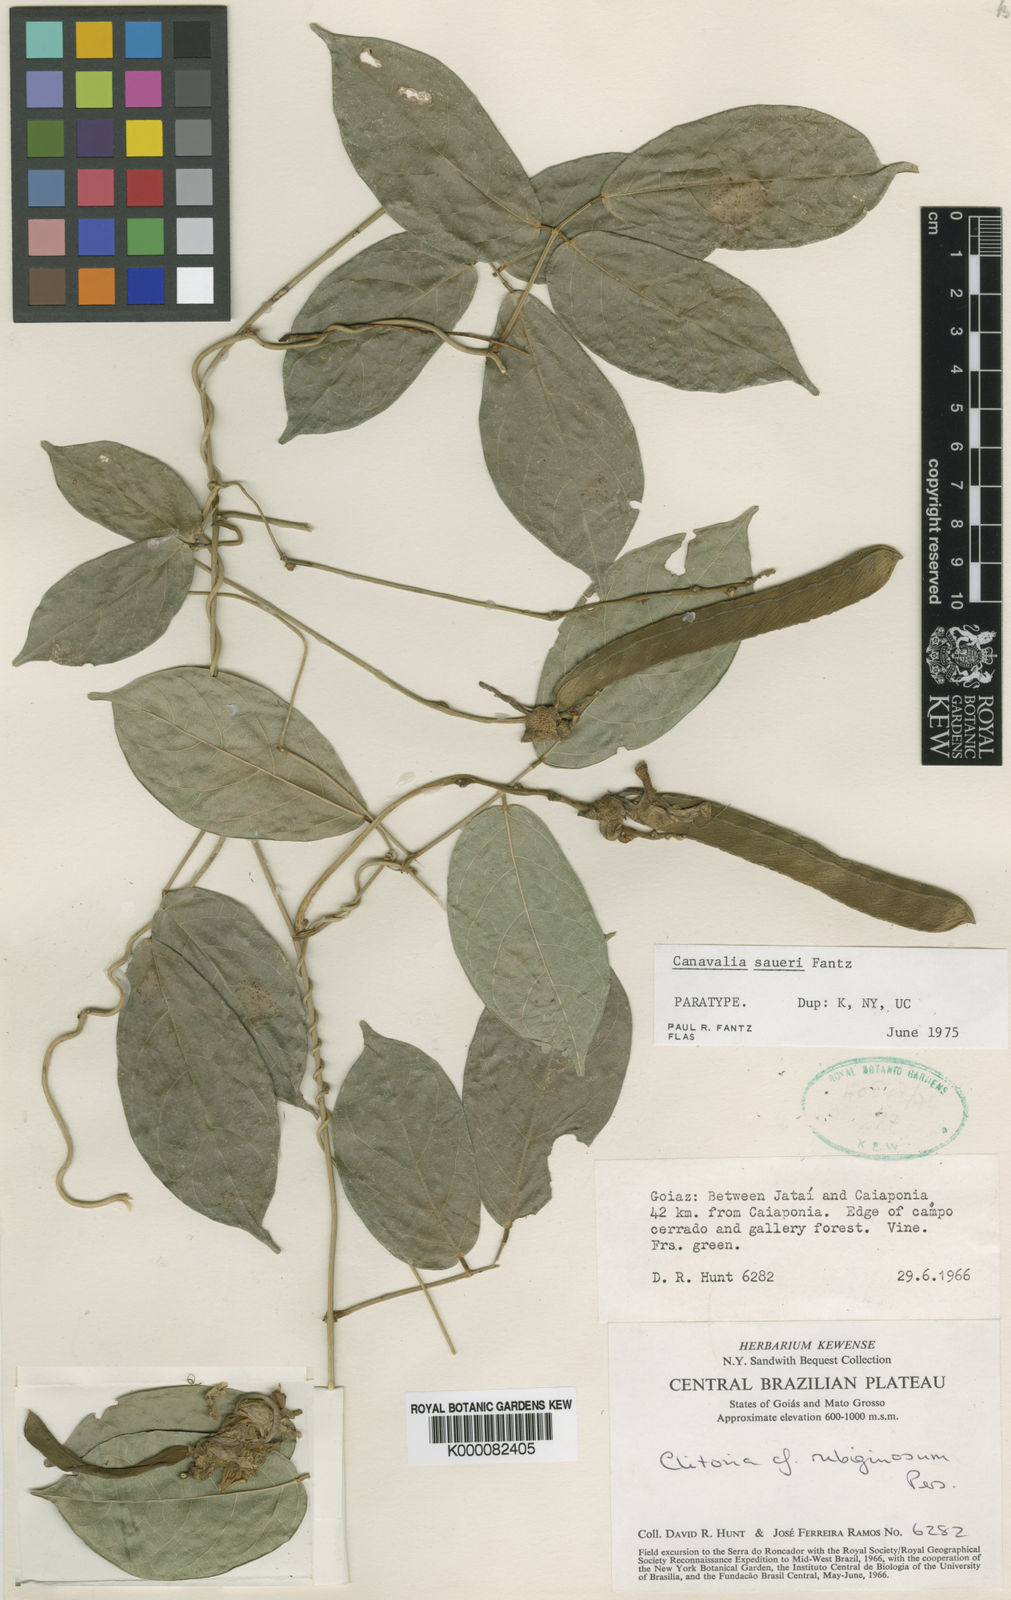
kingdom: Plantae
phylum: Tracheophyta
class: Magnoliopsida
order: Fabales
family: Fabaceae
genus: Canavalia
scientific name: Canavalia saueri
